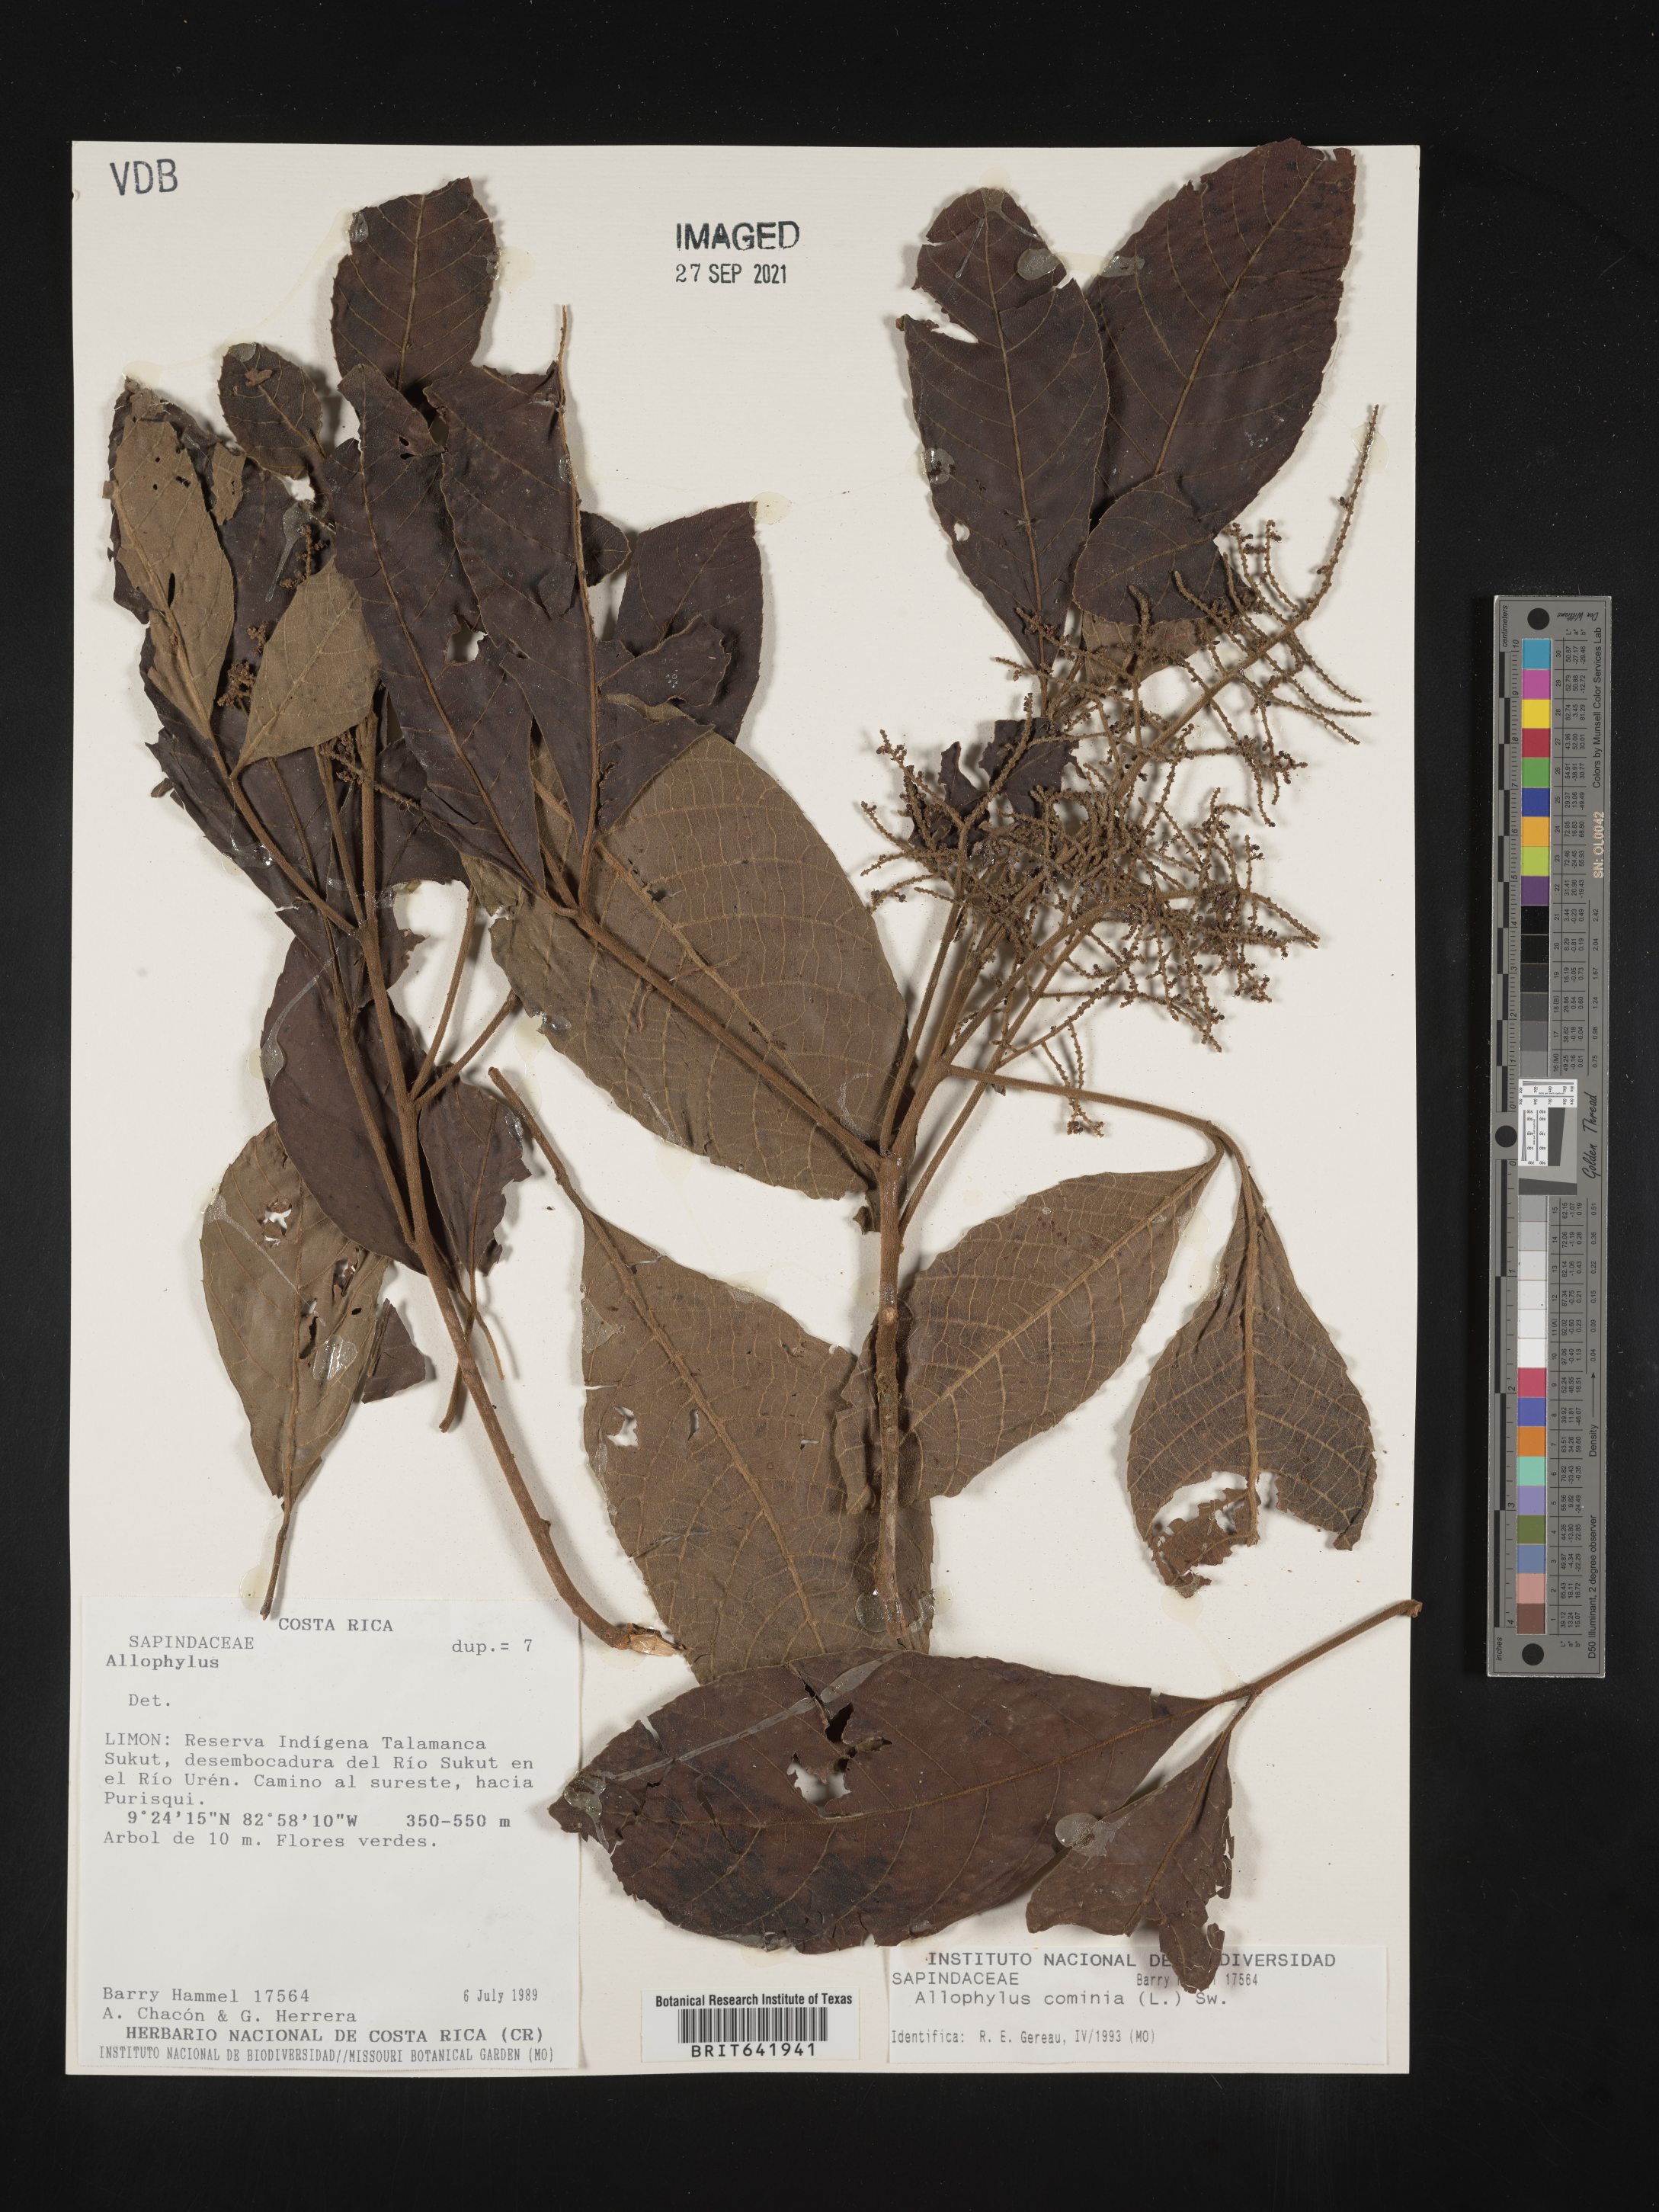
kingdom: Plantae
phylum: Tracheophyta
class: Magnoliopsida
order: Sapindales
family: Sapindaceae
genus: Allophylus
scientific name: Allophylus
